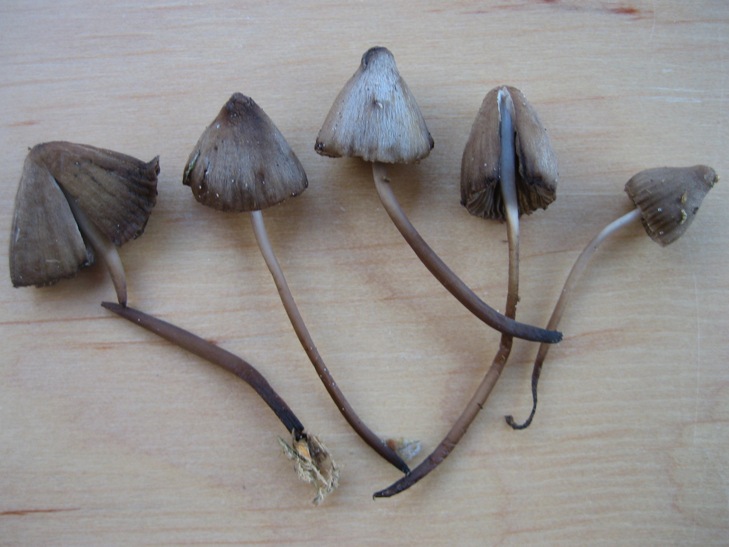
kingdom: Fungi
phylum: Basidiomycota
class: Agaricomycetes
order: Agaricales
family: Mycenaceae
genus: Mycena
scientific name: Mycena stipata
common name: stinkende huesvamp
